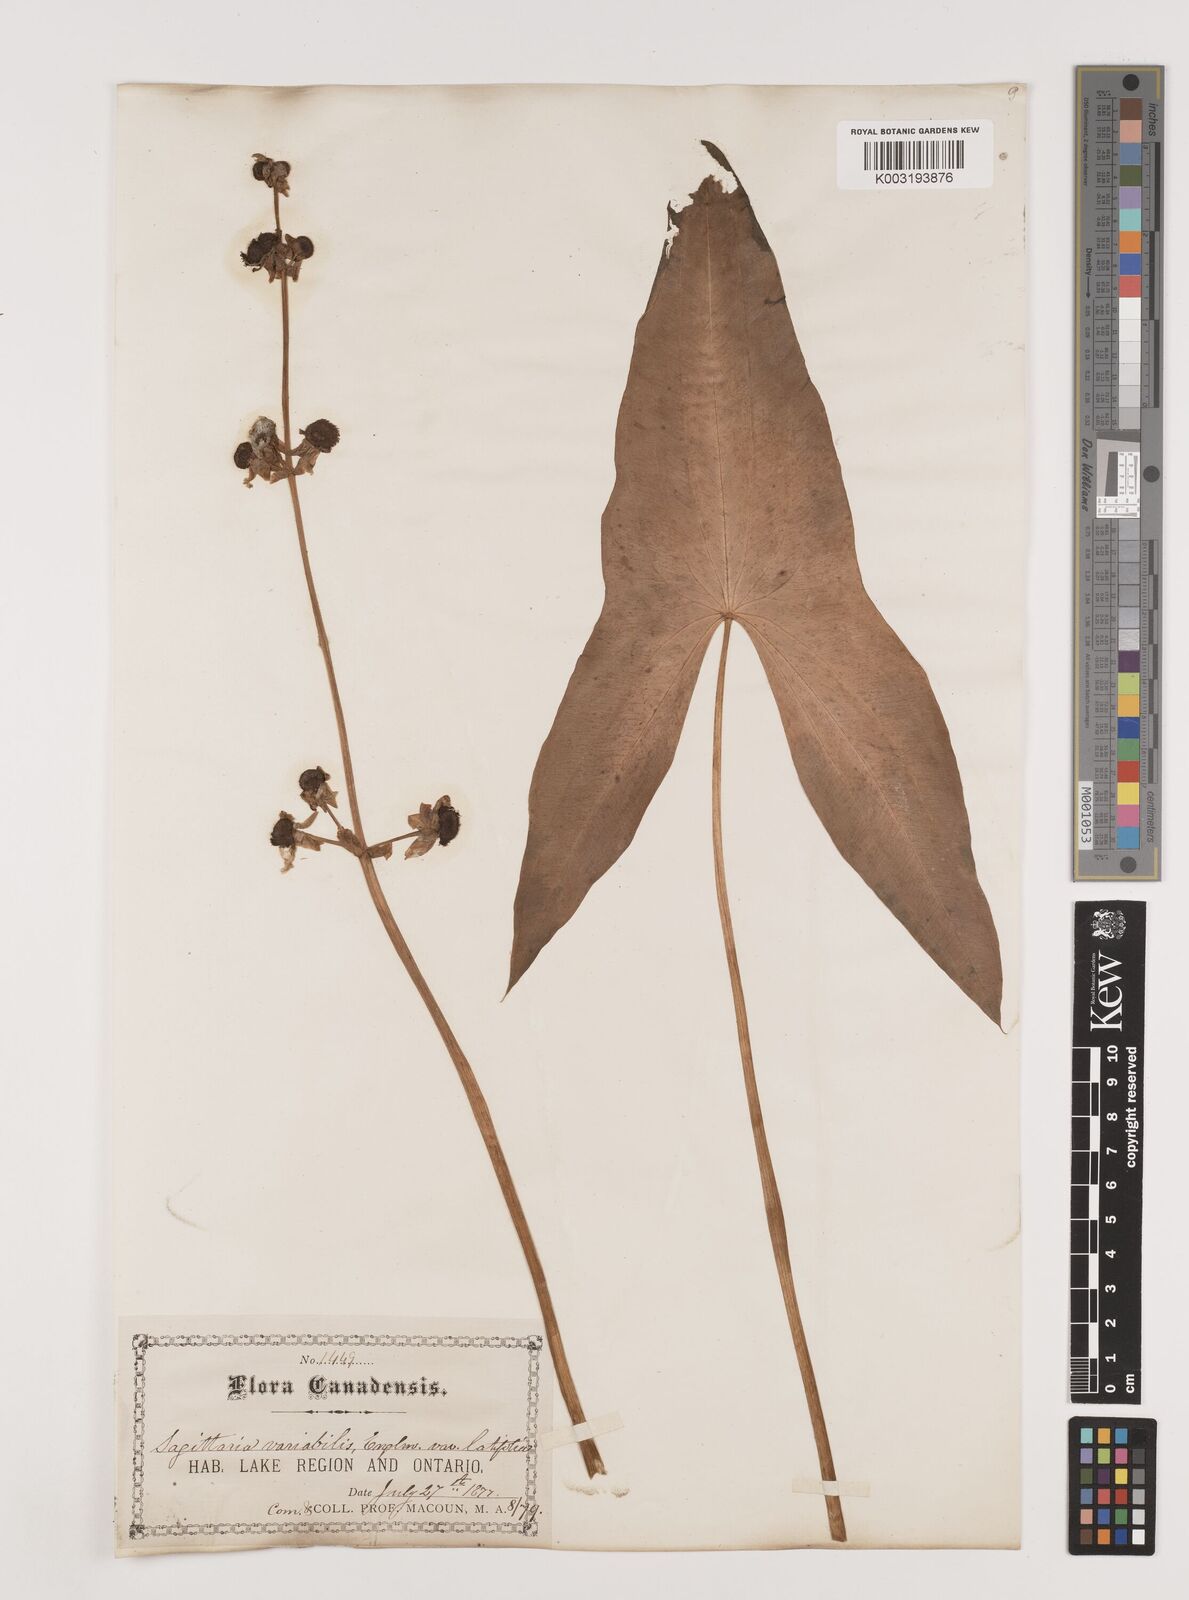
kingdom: Plantae
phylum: Tracheophyta
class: Liliopsida
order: Alismatales
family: Alismataceae
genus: Sagittaria
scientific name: Sagittaria latifolia
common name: Duck-potato
